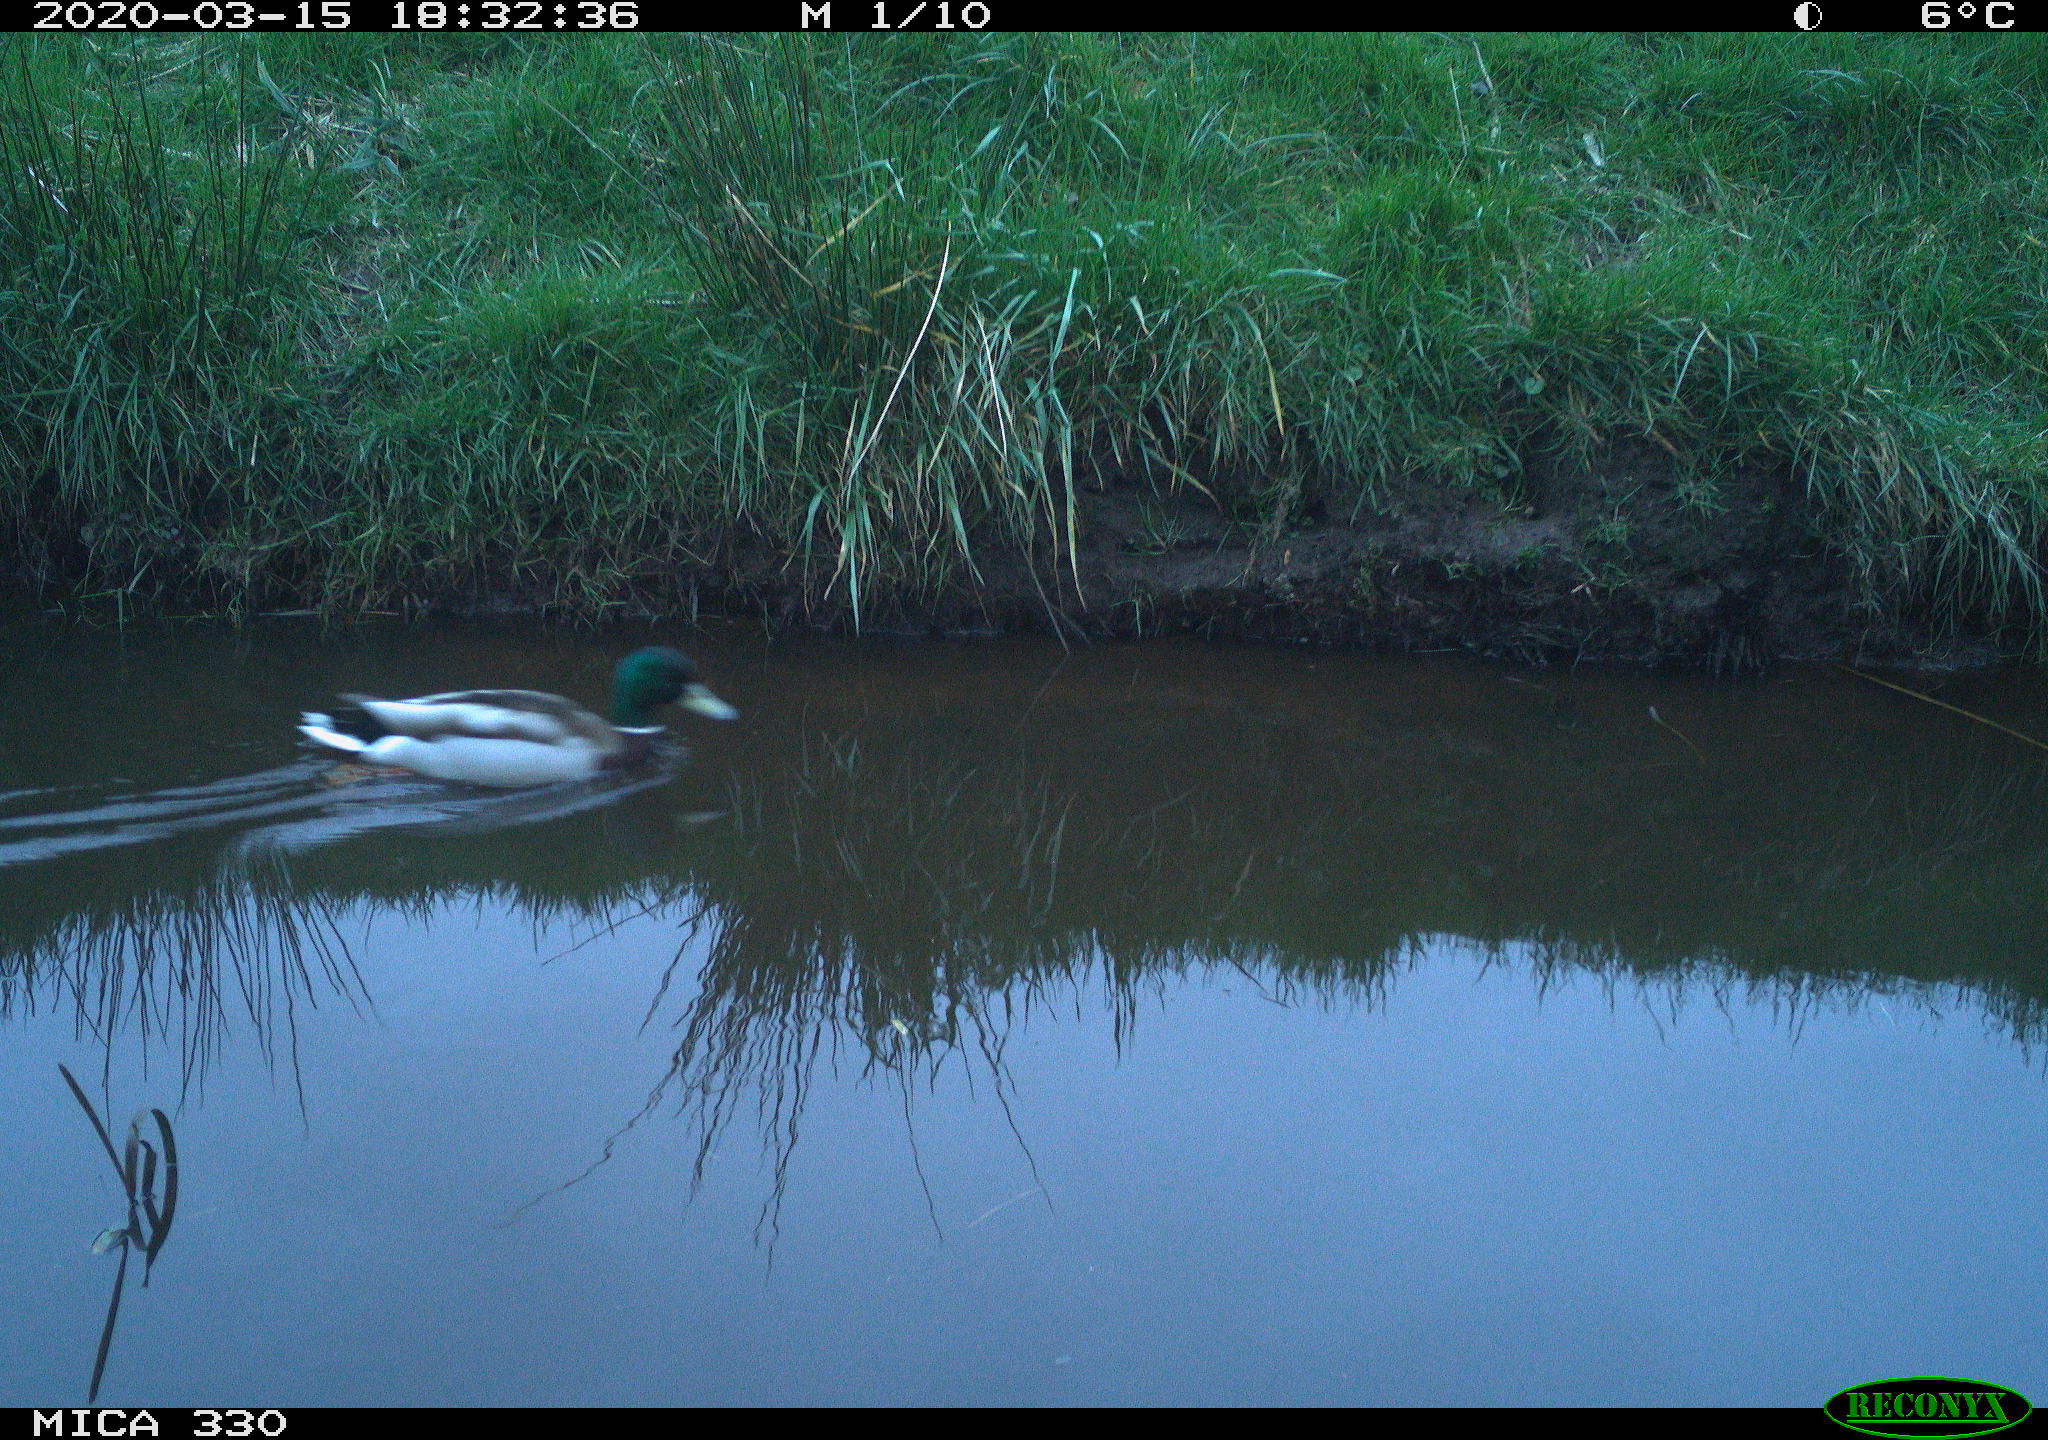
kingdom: Animalia
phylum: Chordata
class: Aves
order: Anseriformes
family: Anatidae
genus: Anas
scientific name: Anas platyrhynchos
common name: Mallard
